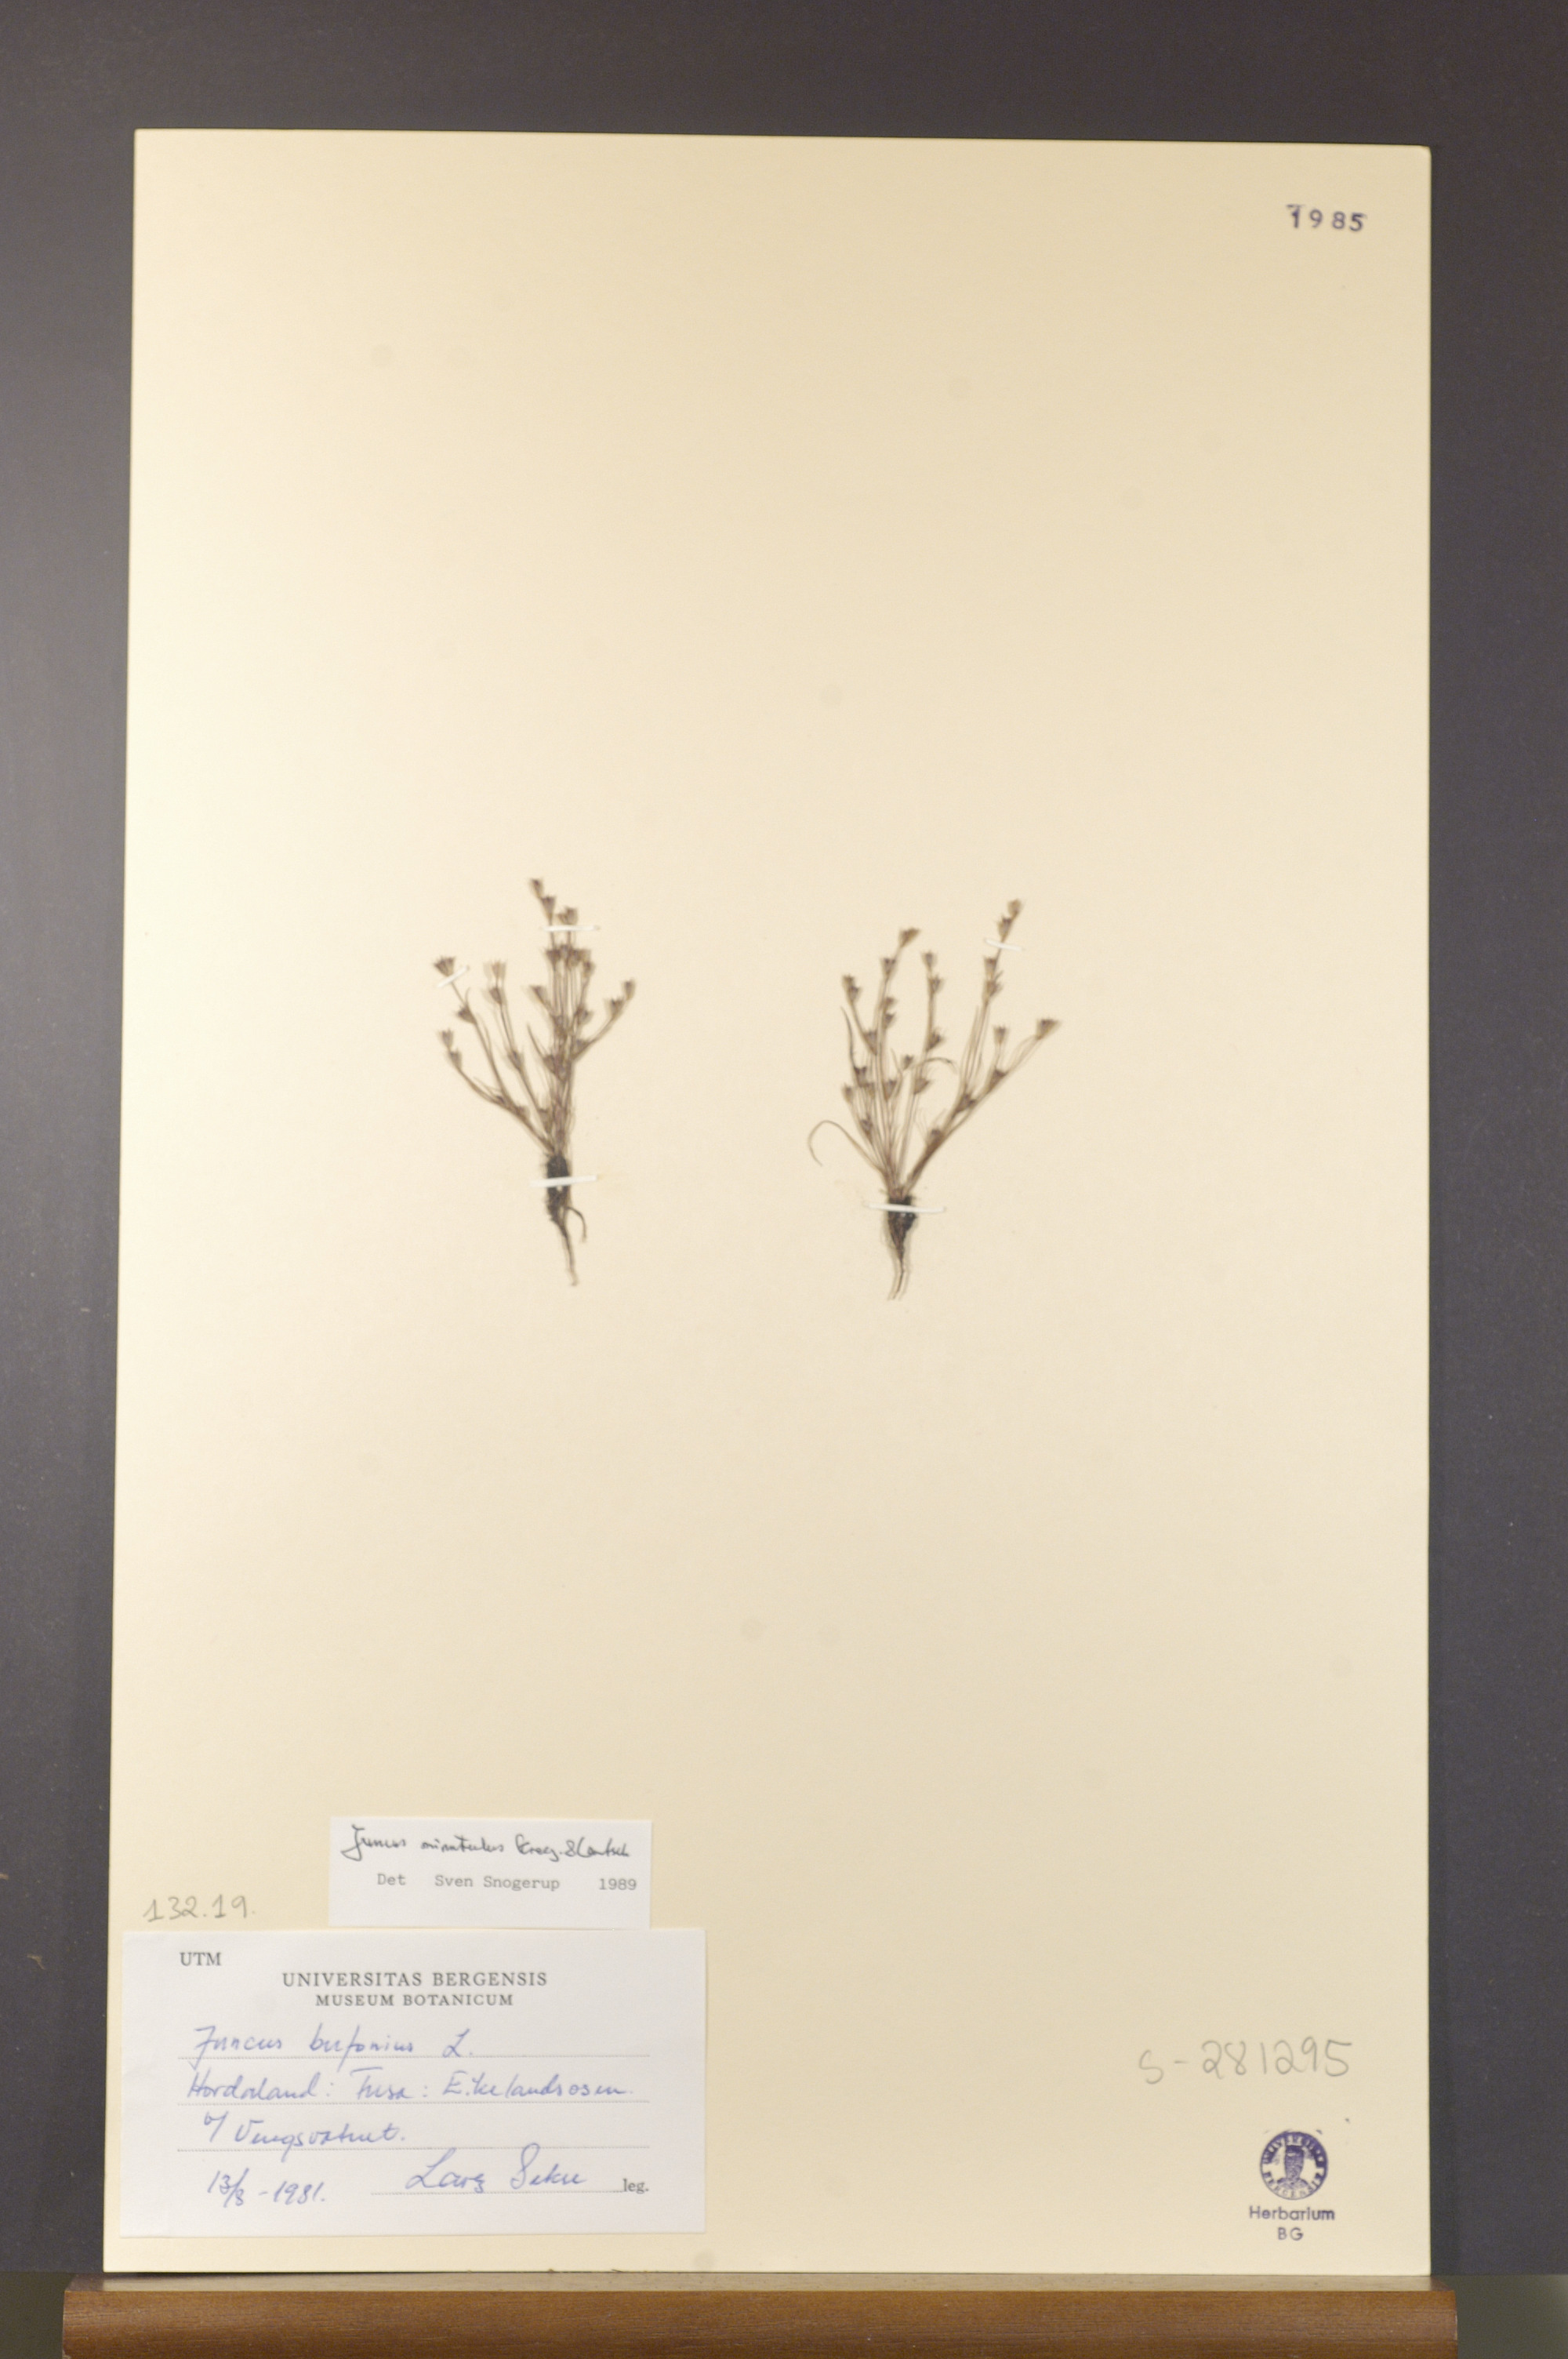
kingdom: Plantae
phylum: Tracheophyta
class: Liliopsida
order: Poales
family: Juncaceae
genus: Juncus
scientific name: Juncus minutulus
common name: Minute rush
